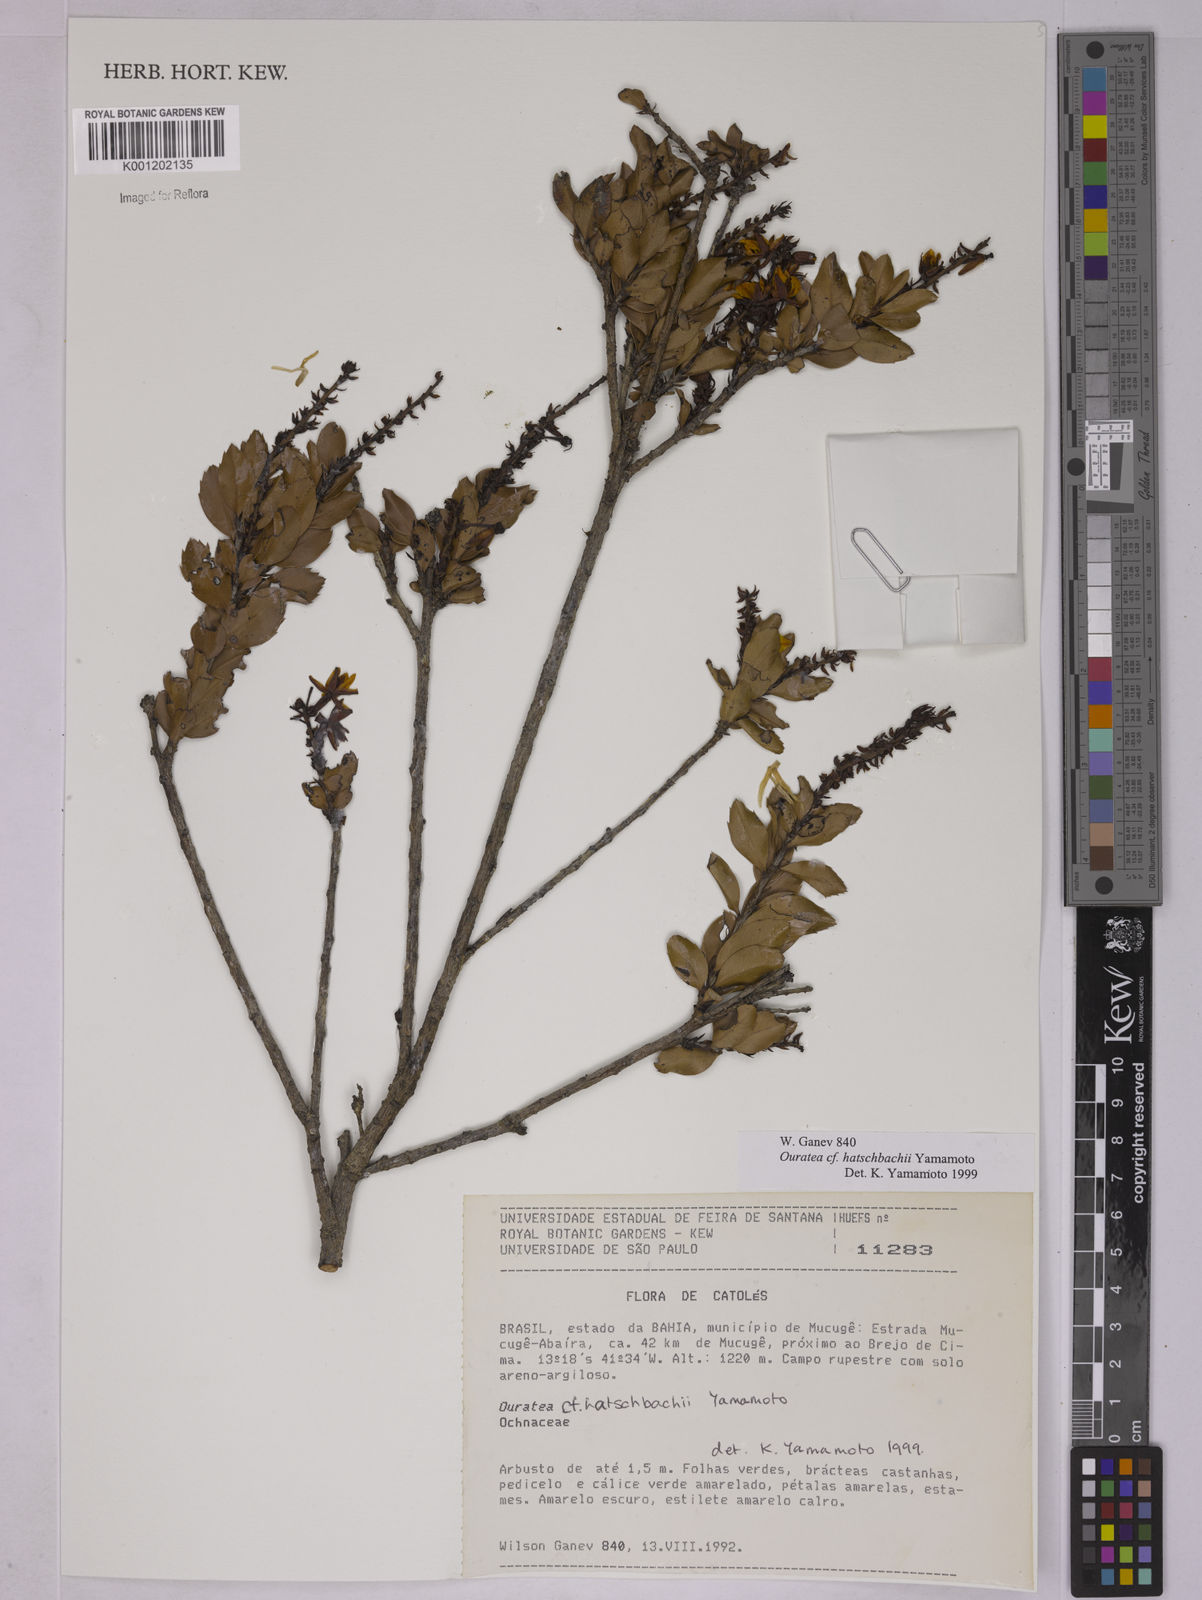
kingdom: Plantae
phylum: Tracheophyta
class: Magnoliopsida
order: Malpighiales
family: Ochnaceae
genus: Ouratea
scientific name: Ouratea hatschbachii
